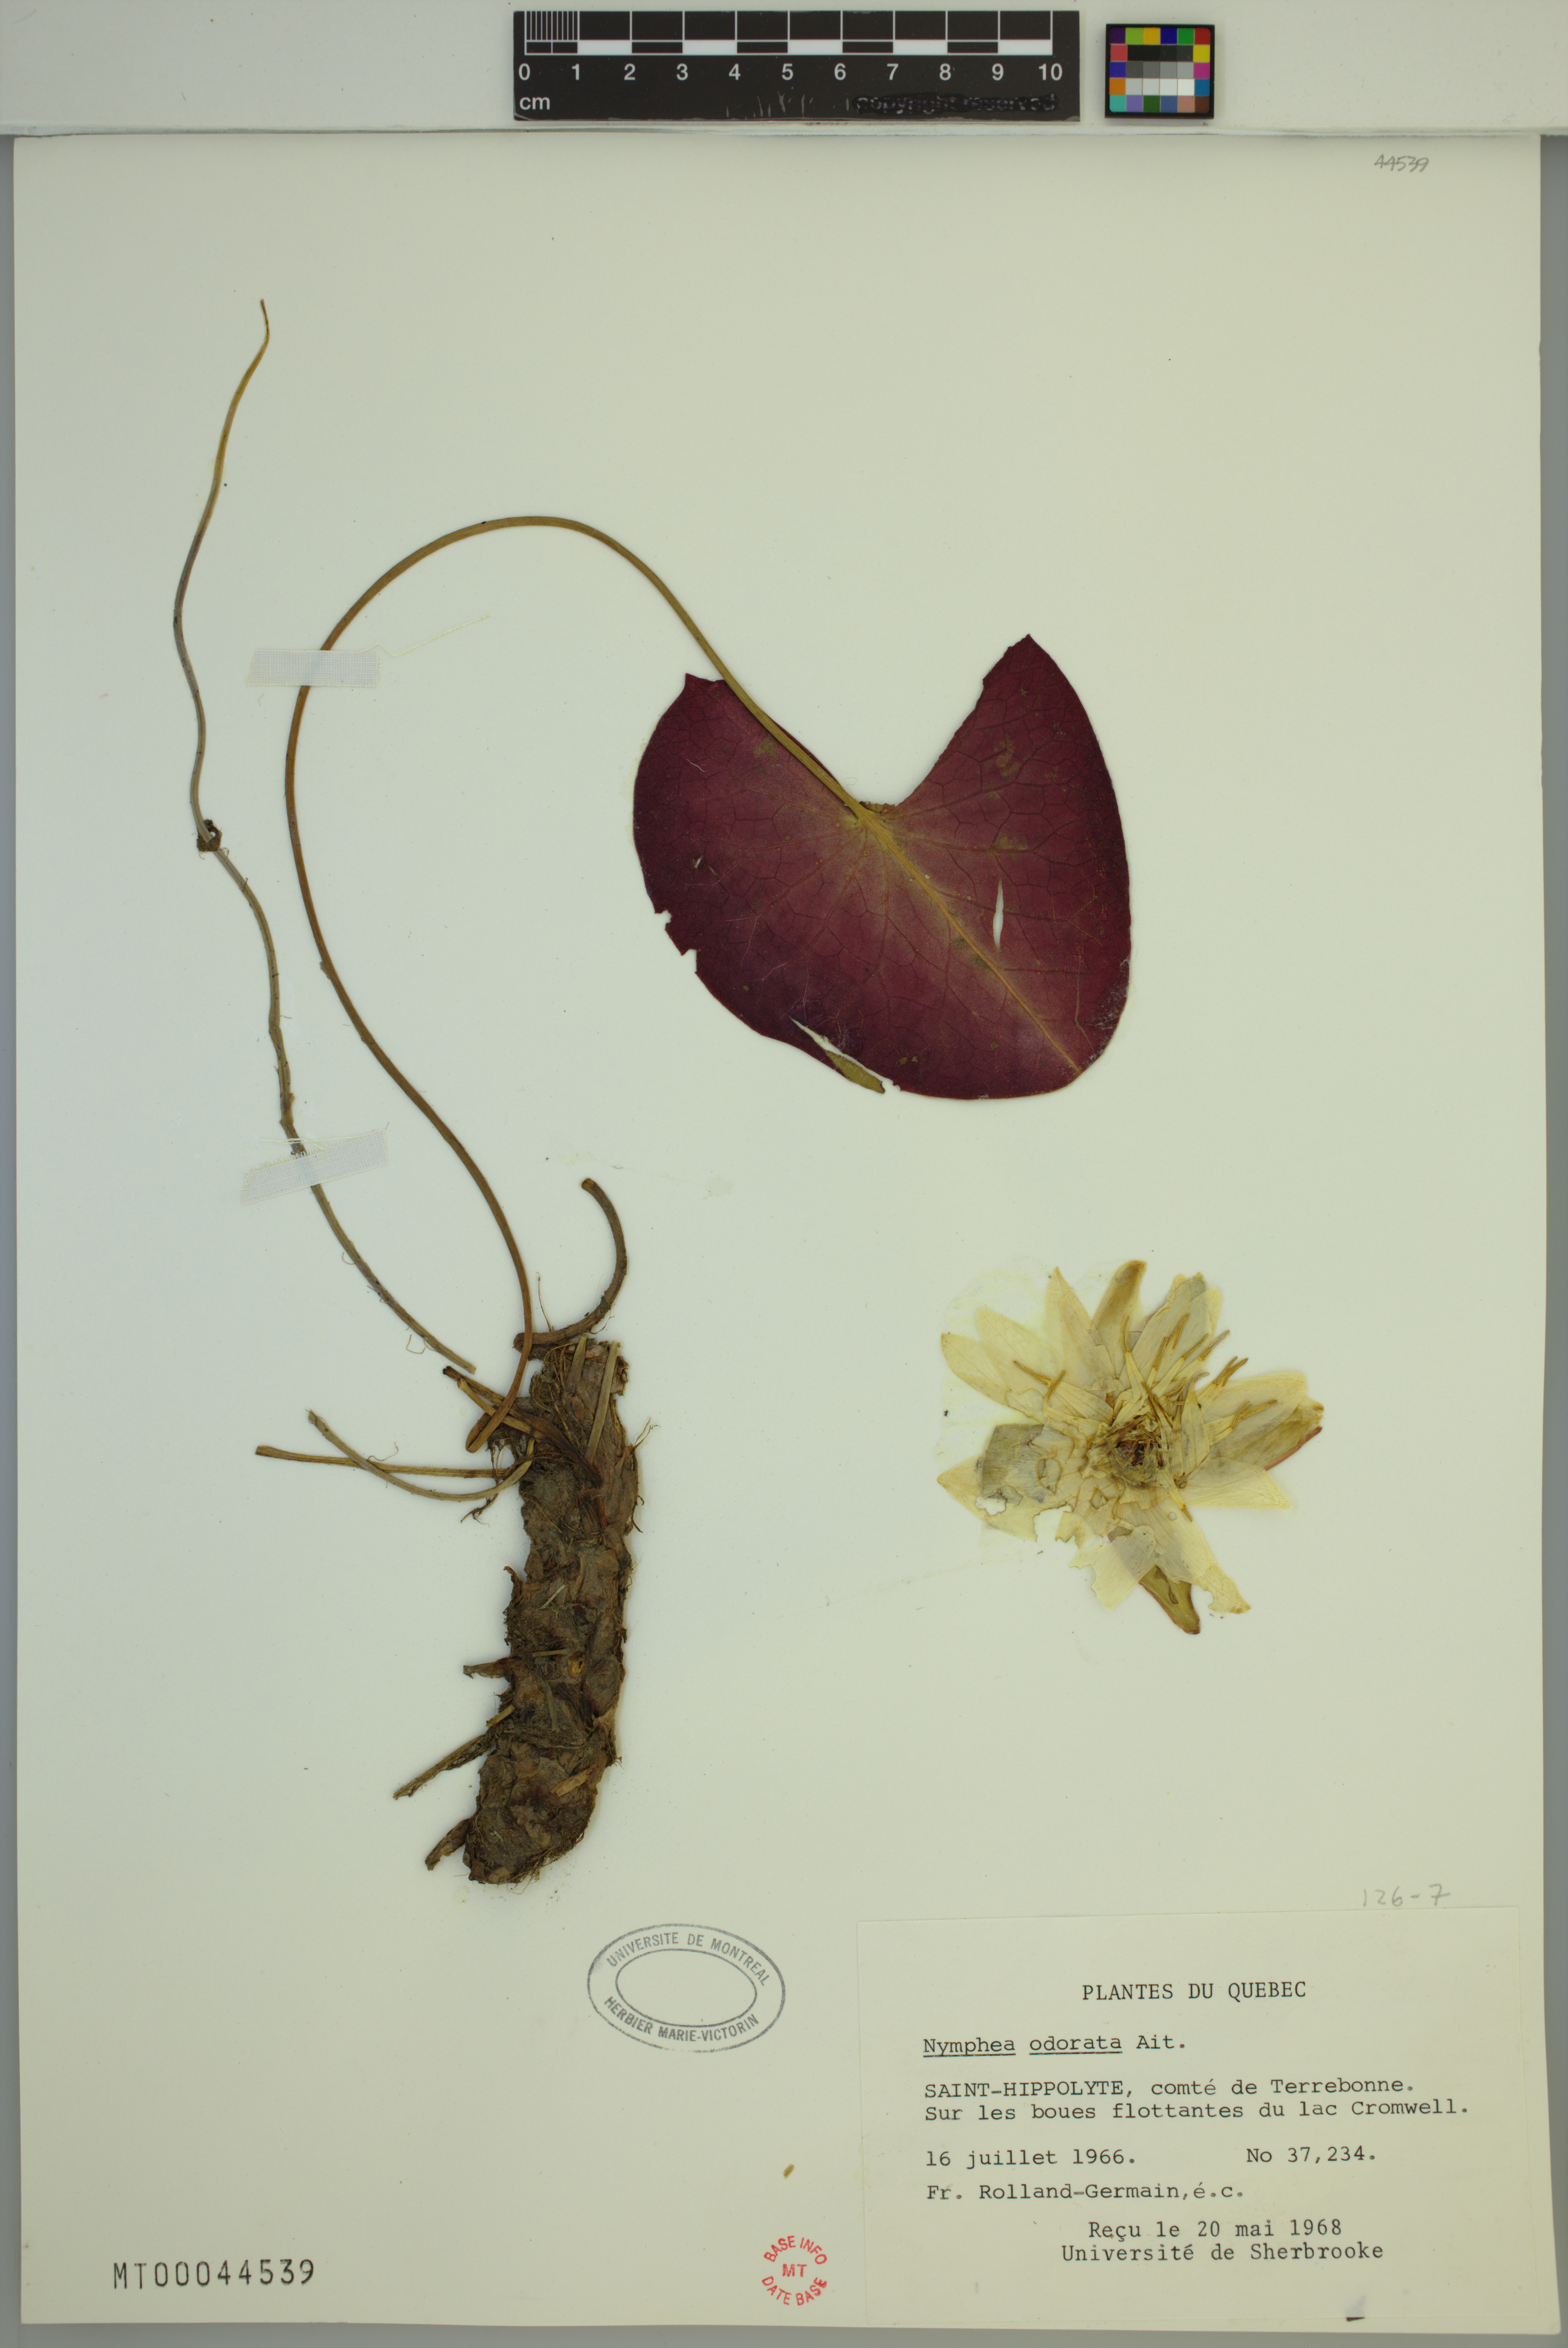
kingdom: Plantae
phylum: Tracheophyta
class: Magnoliopsida
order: Nymphaeales
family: Nymphaeaceae
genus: Nymphaea
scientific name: Nymphaea odorata
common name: Fragrant water-lily
